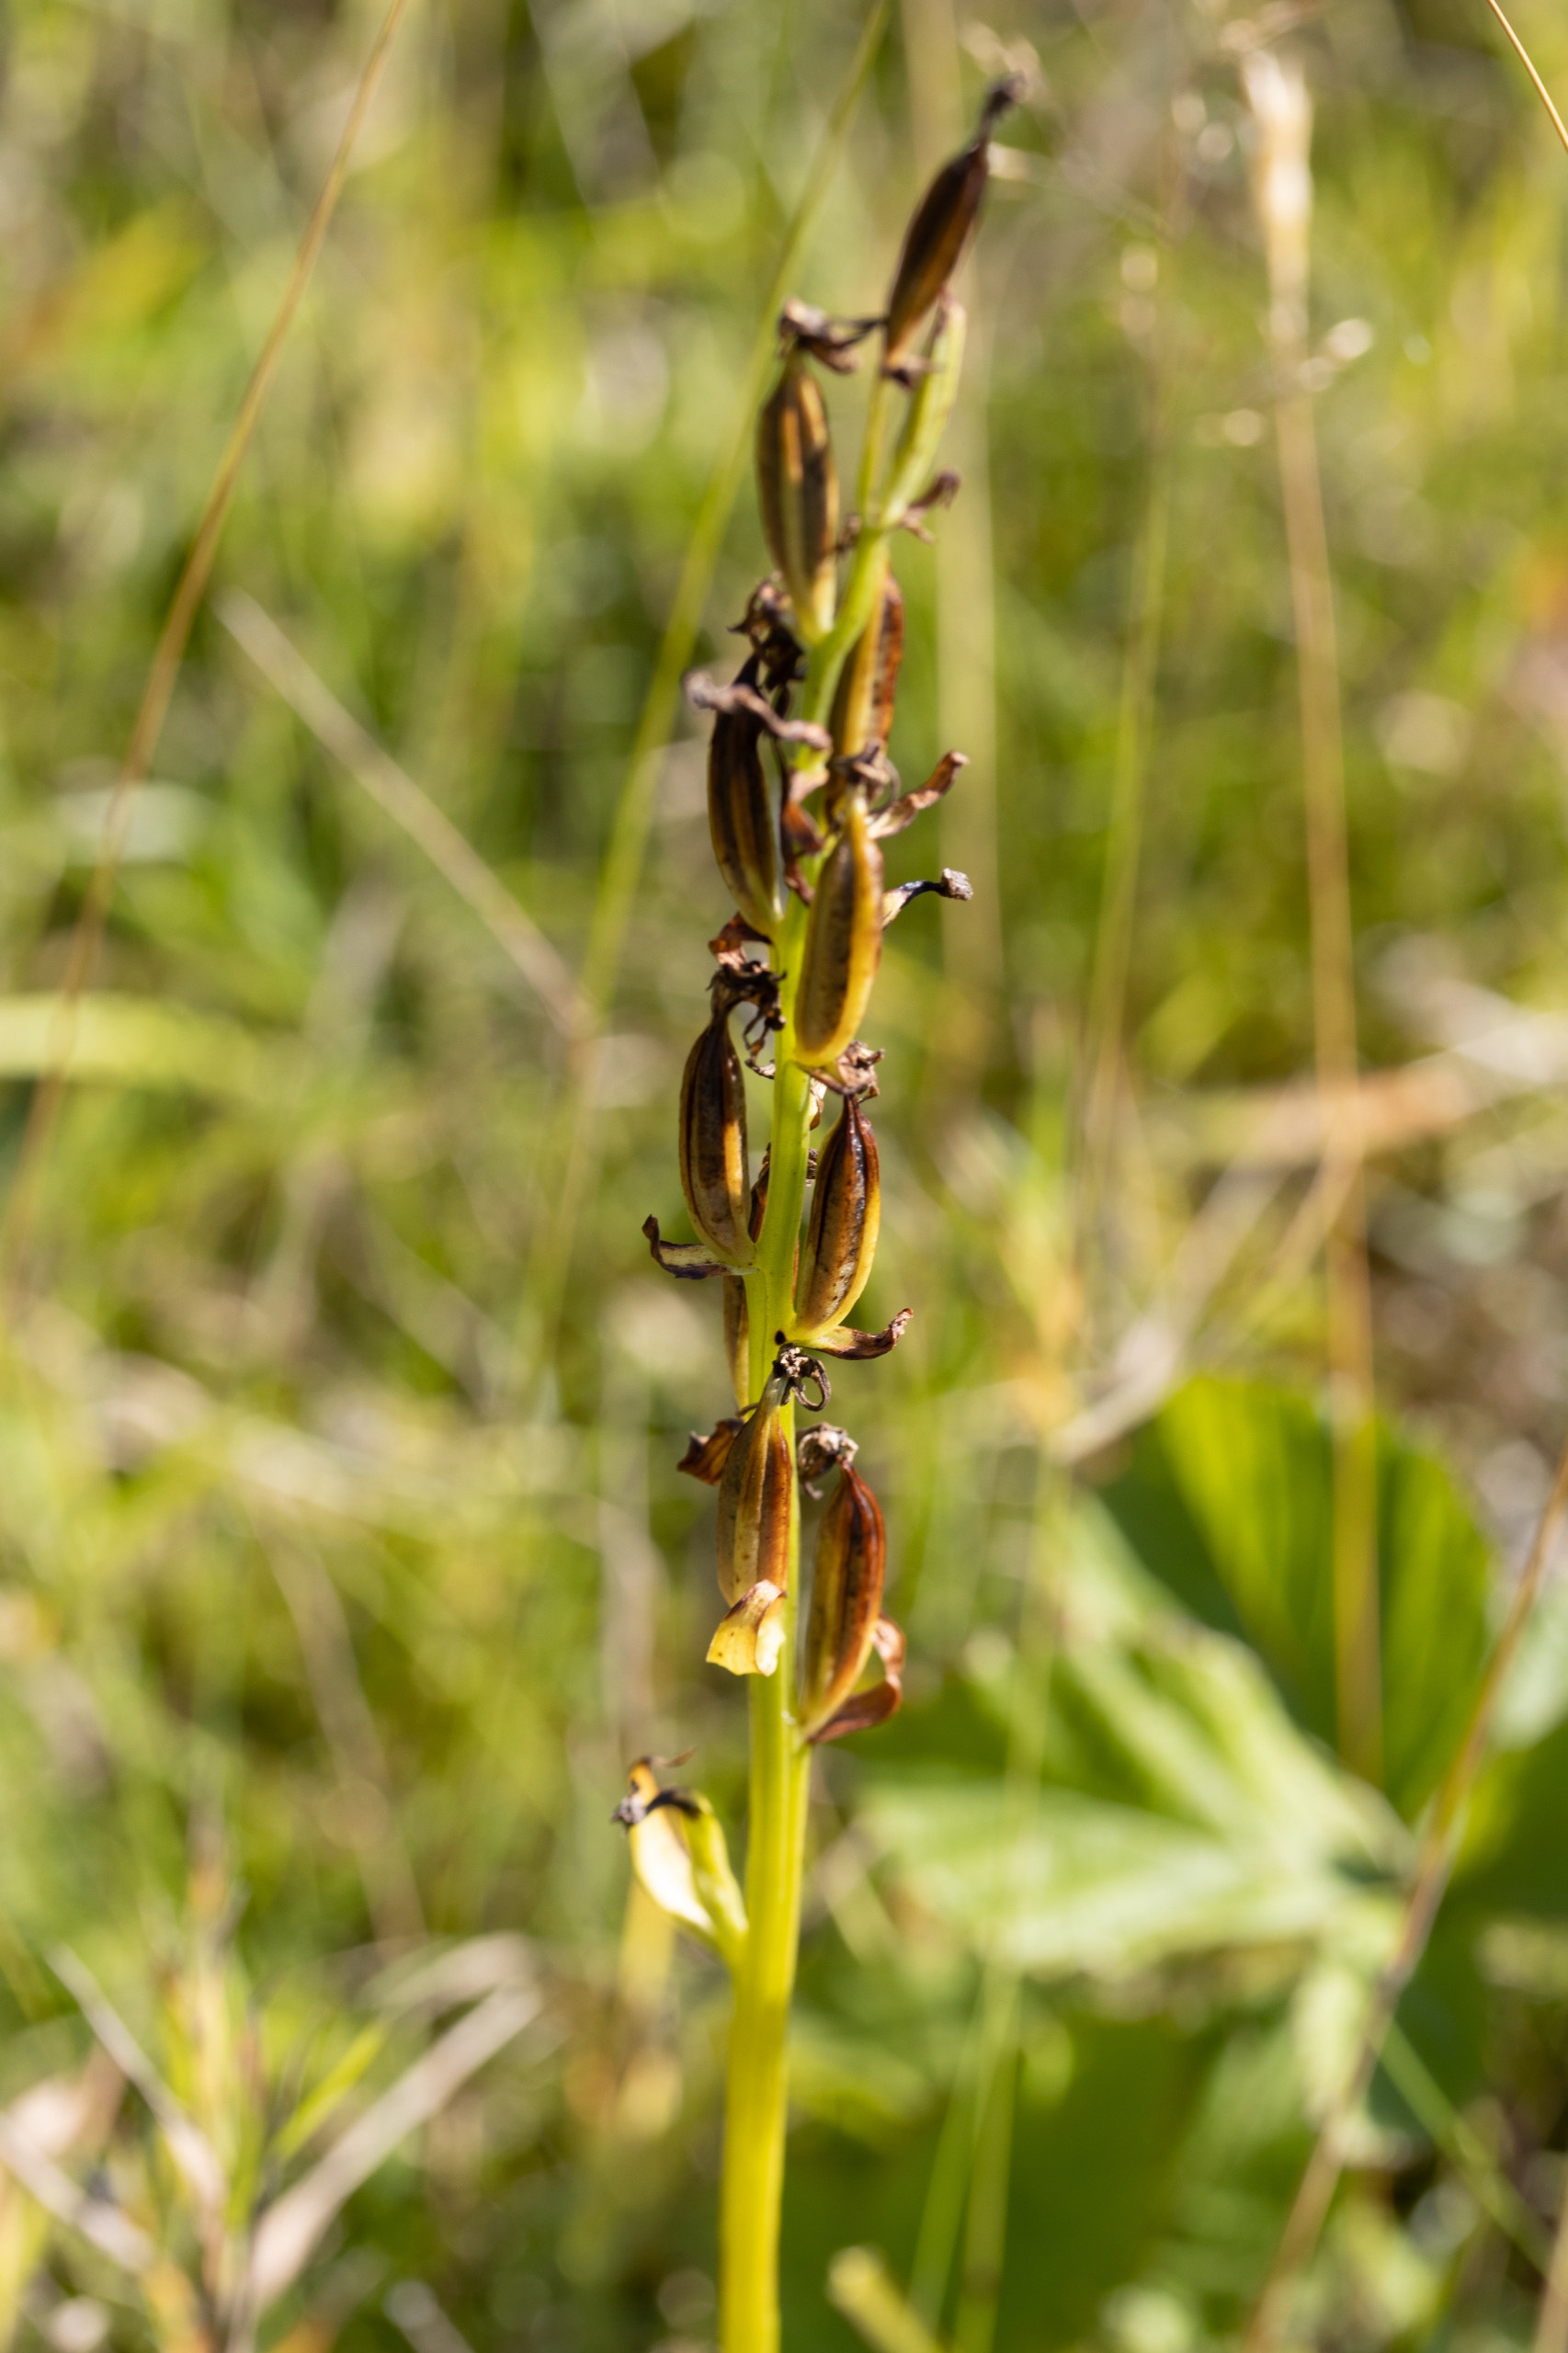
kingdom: Plantae
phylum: Tracheophyta
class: Liliopsida
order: Asparagales
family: Orchidaceae
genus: Platanthera
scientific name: Platanthera
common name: Gøgeliljeslægten
